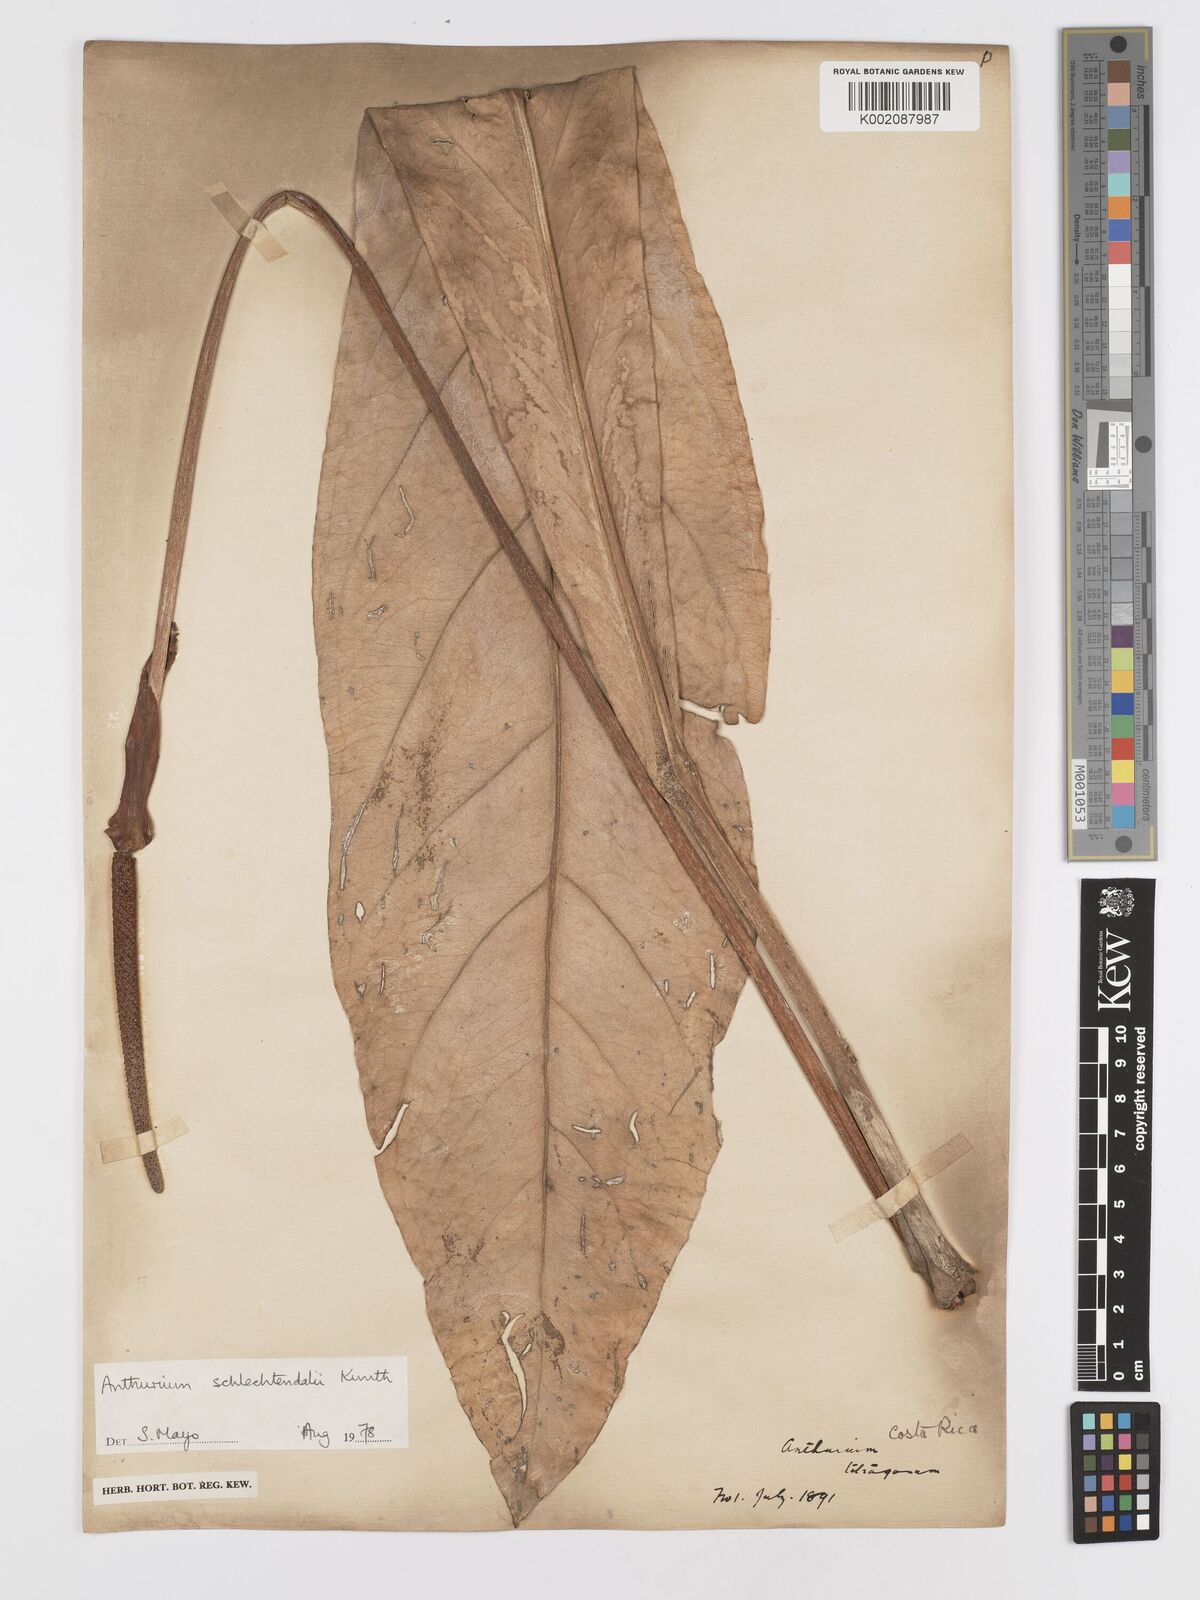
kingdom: Plantae
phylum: Tracheophyta
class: Liliopsida
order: Alismatales
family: Araceae
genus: Anthurium
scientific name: Anthurium schlechtendalii
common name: Laceleaf
